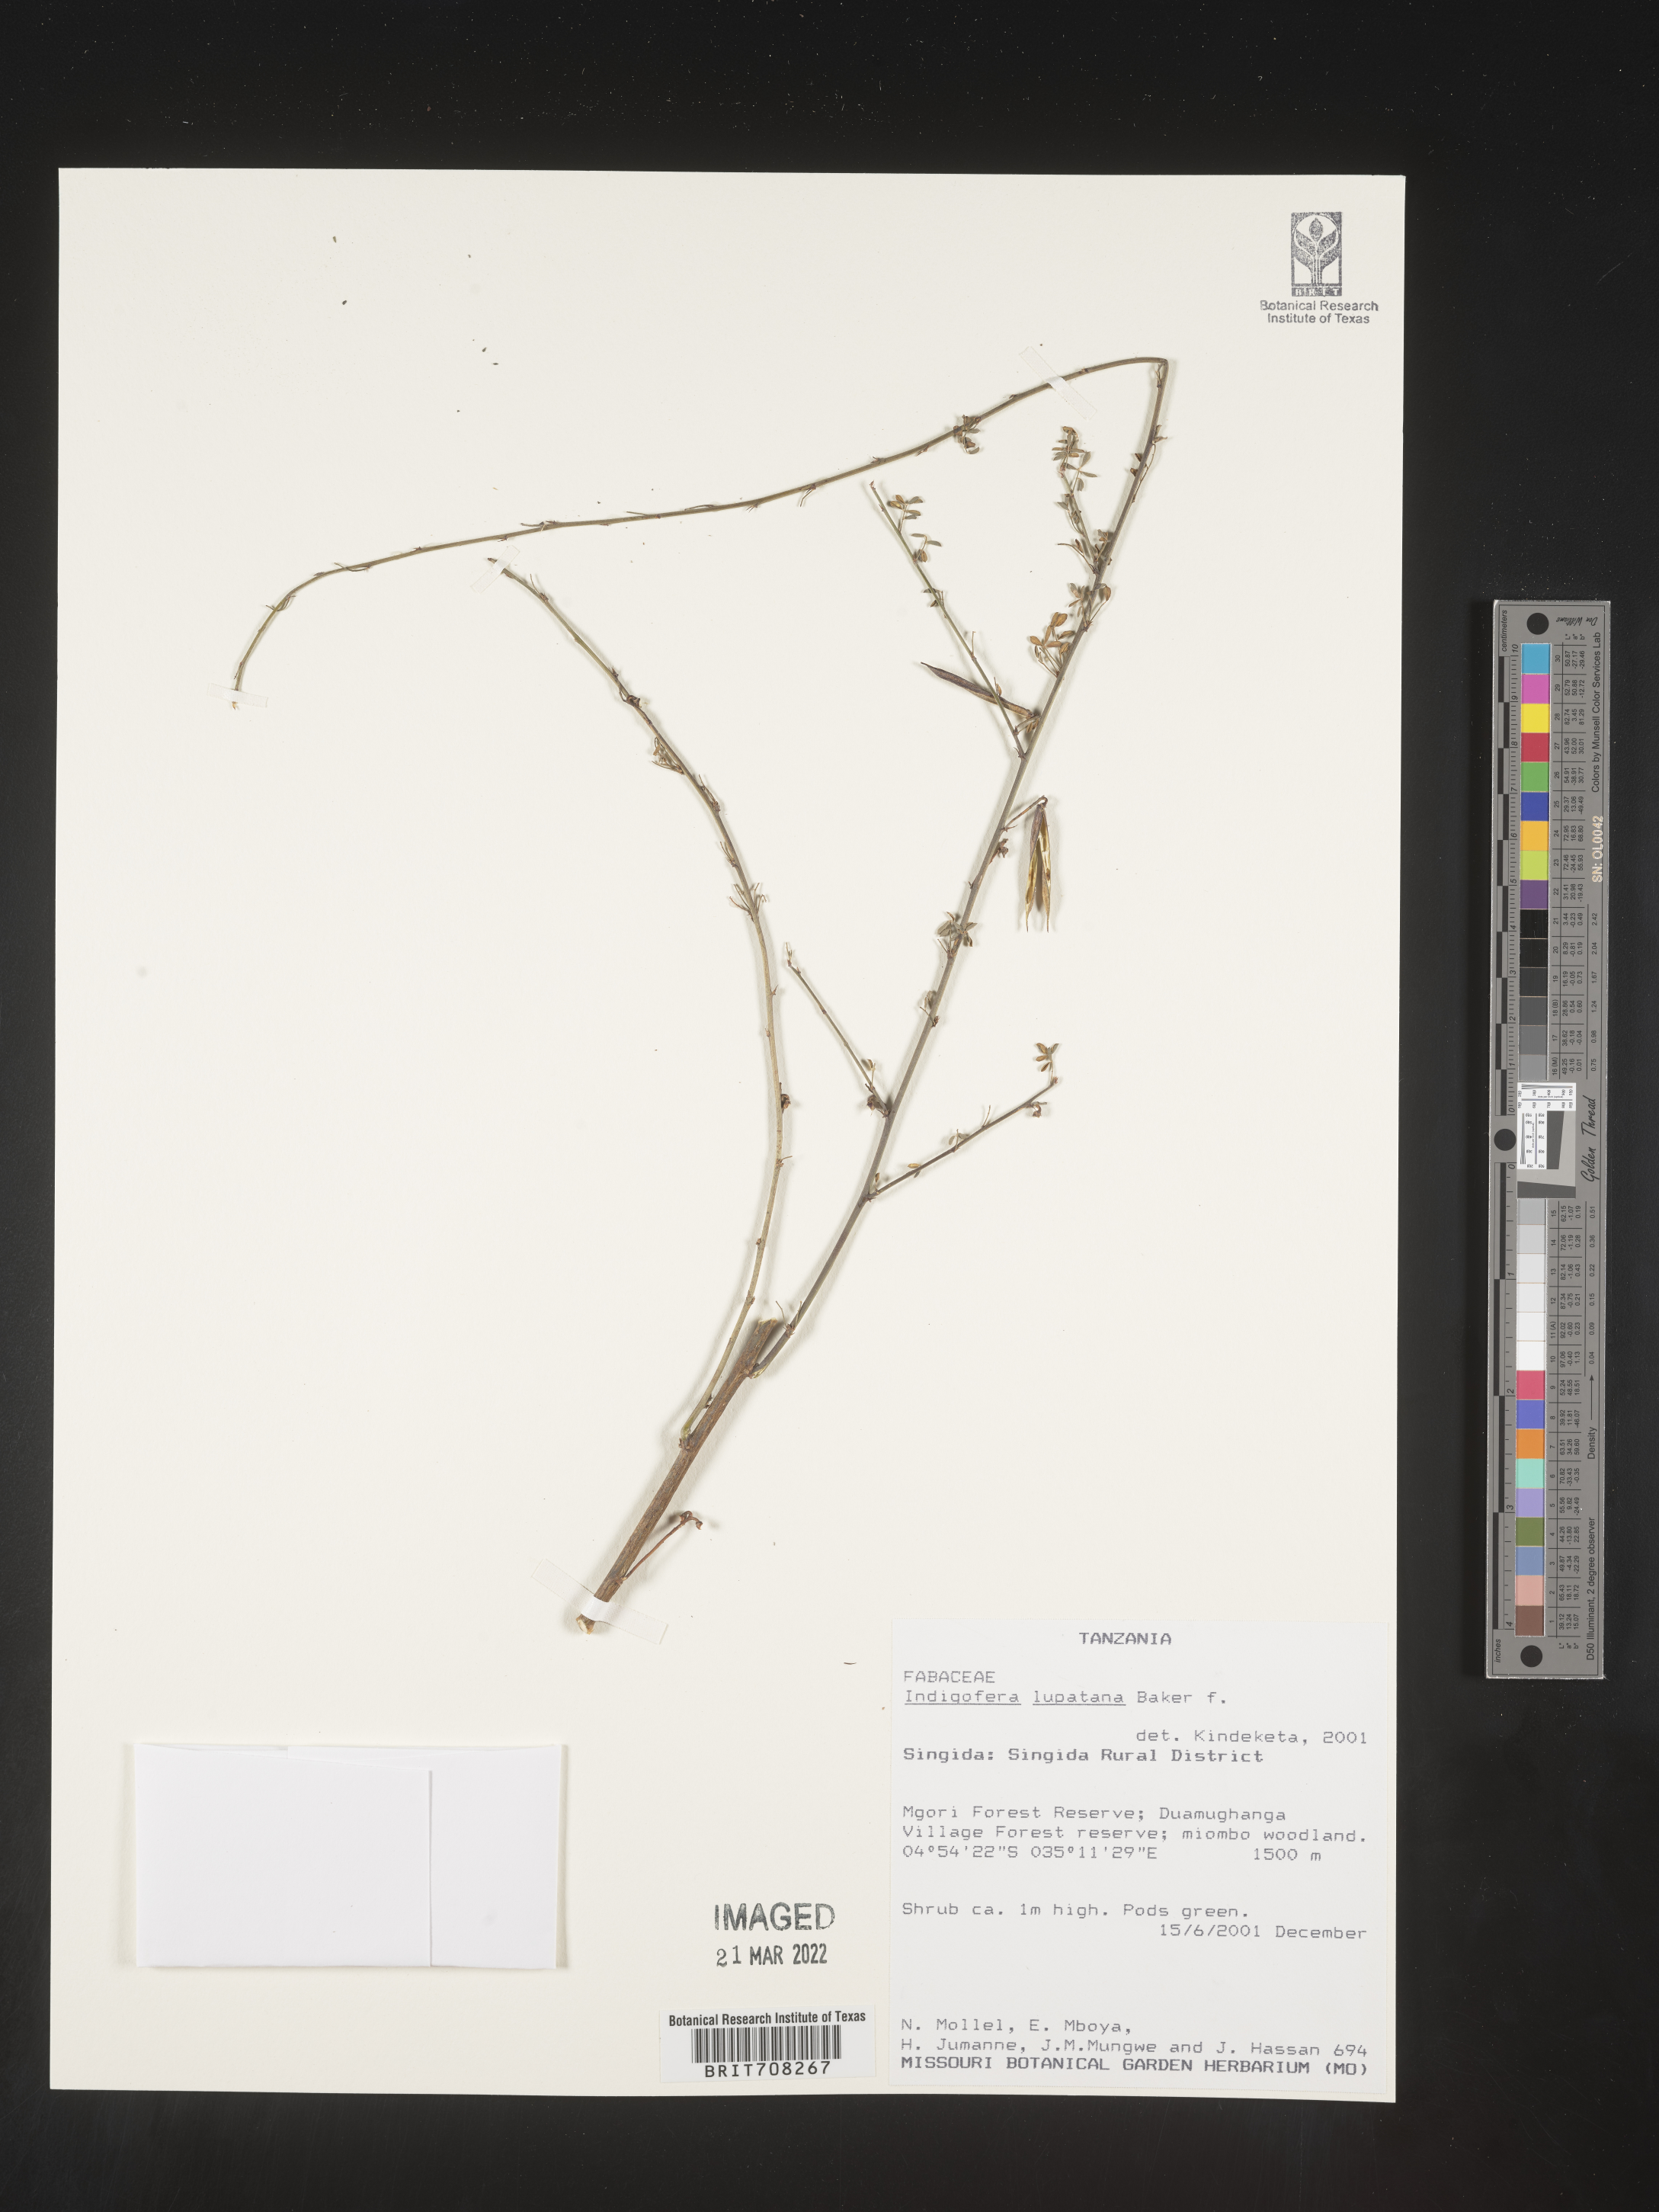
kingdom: Plantae
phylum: Tracheophyta
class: Magnoliopsida
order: Fabales
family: Fabaceae
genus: Indigofera
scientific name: Indigofera
